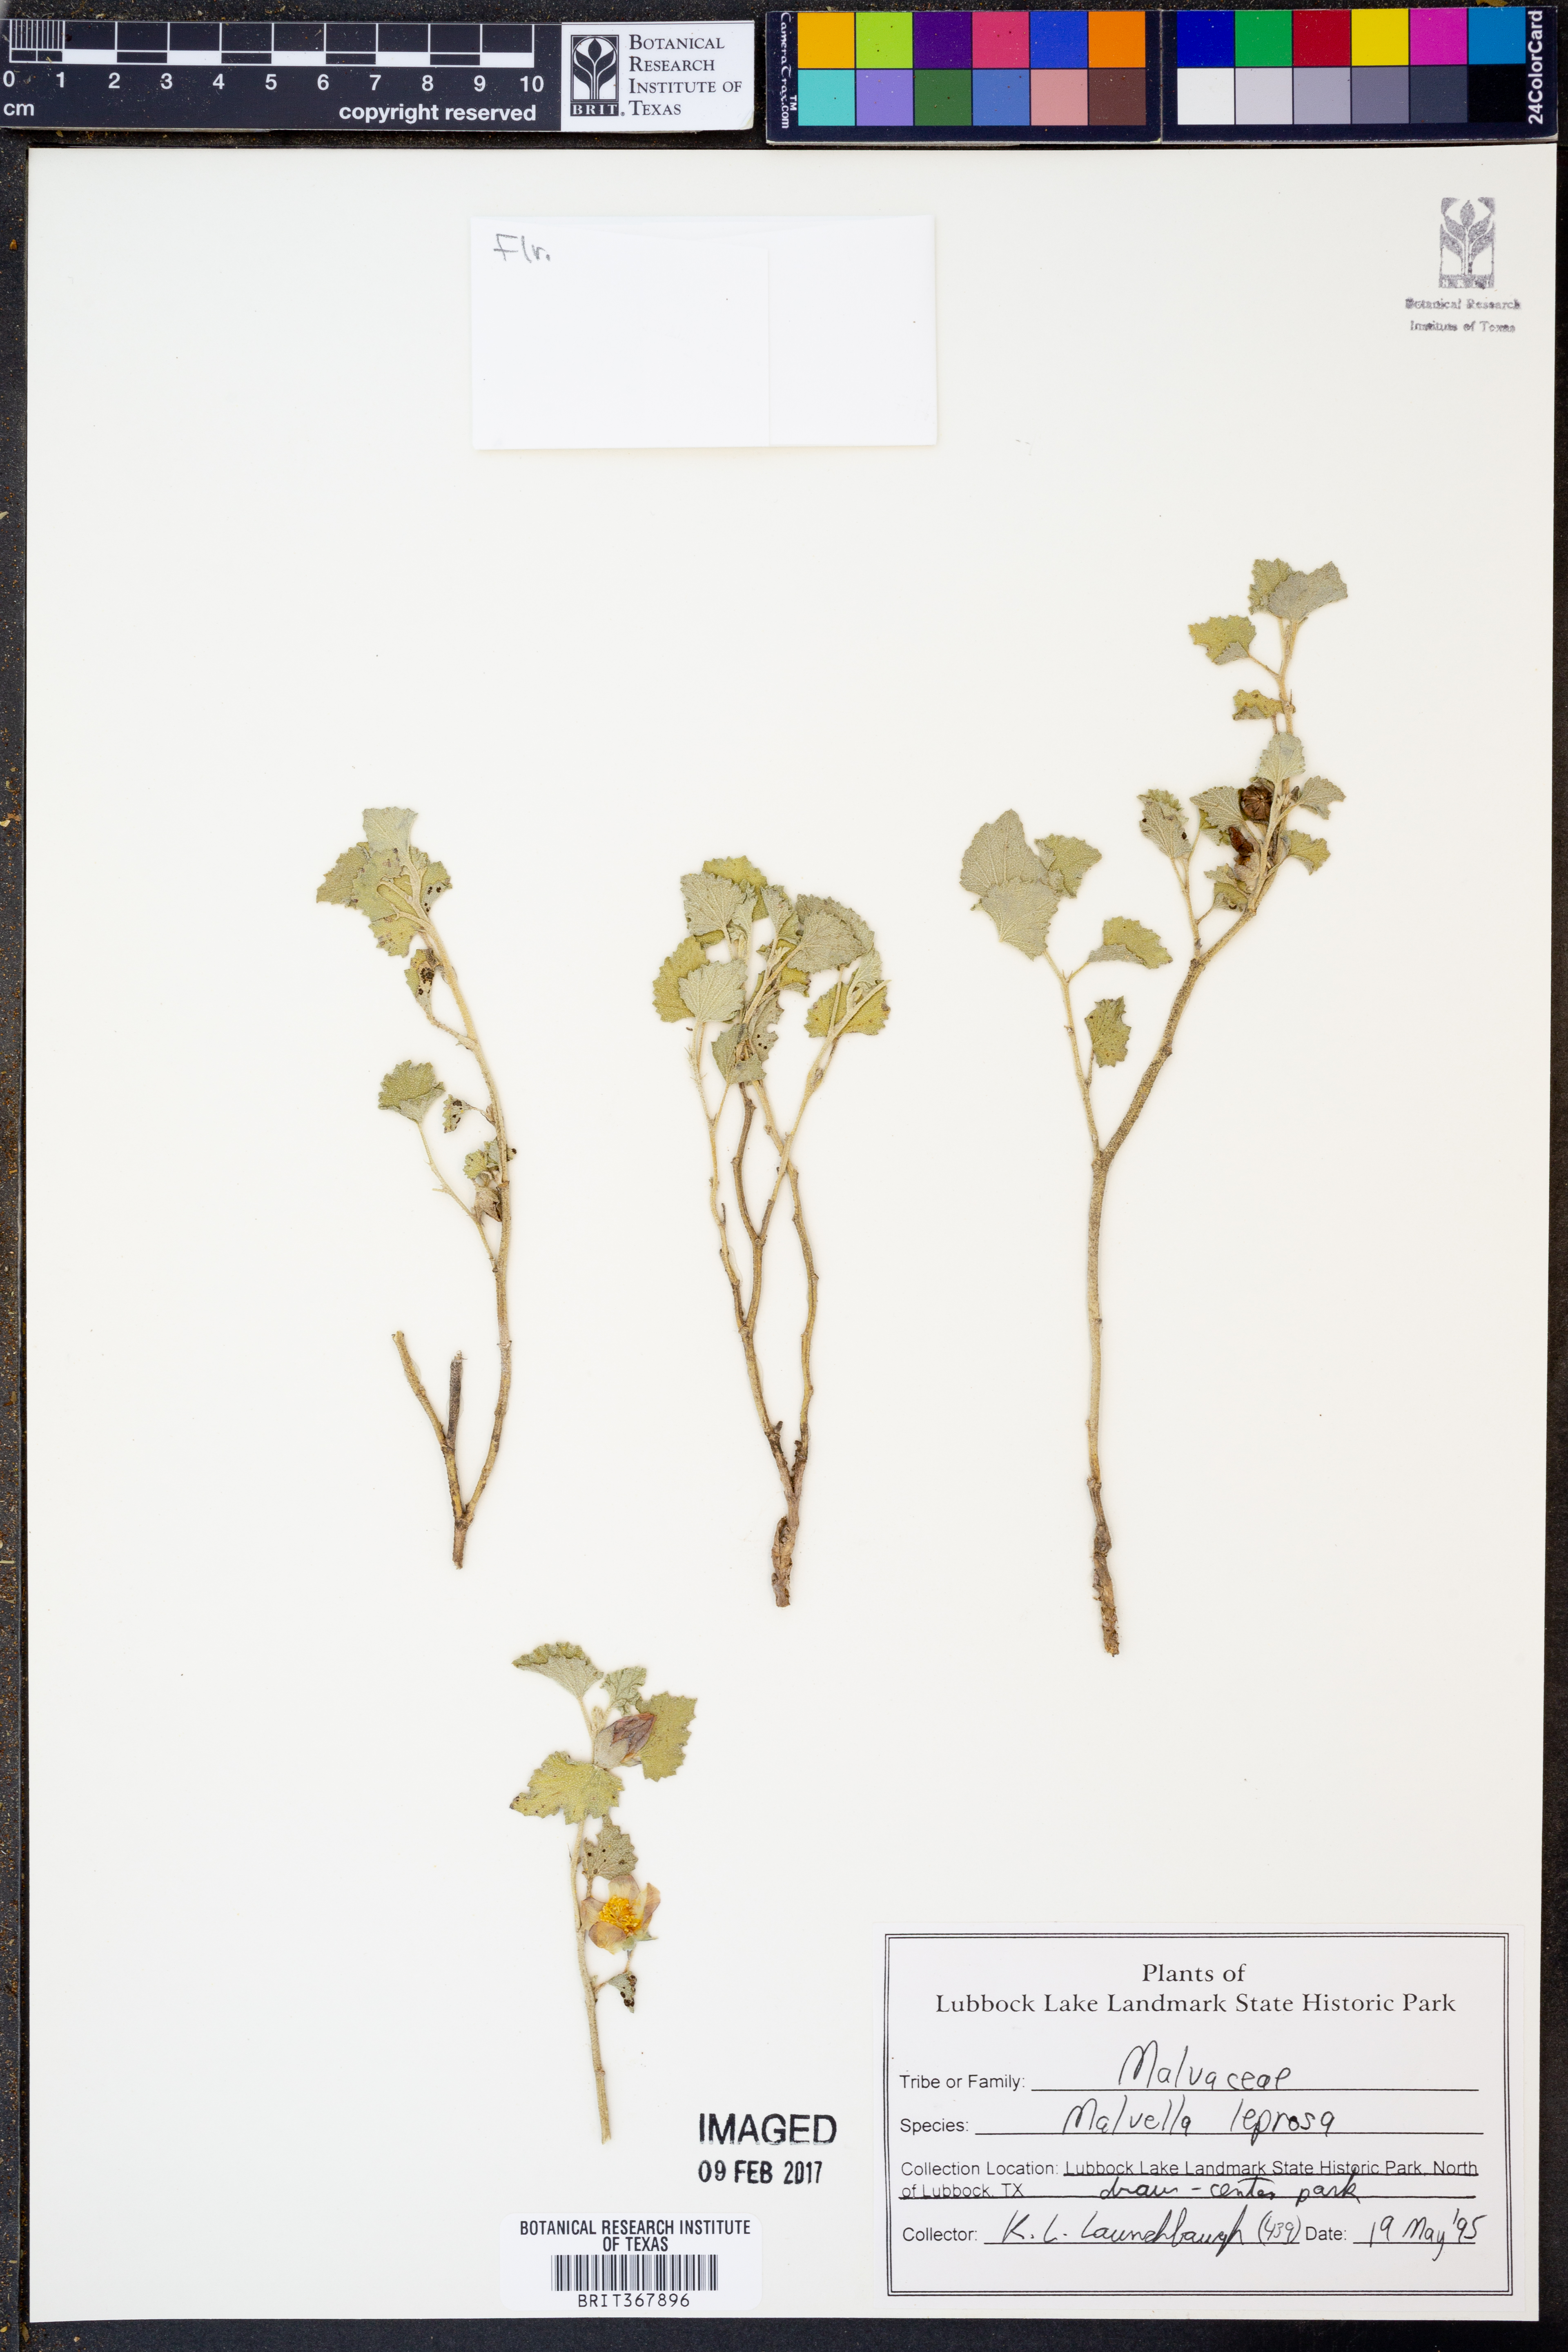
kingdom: Plantae
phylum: Tracheophyta
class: Magnoliopsida
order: Malvales
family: Malvaceae
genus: Malvella
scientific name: Malvella leprosa
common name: Alkali-mallow
